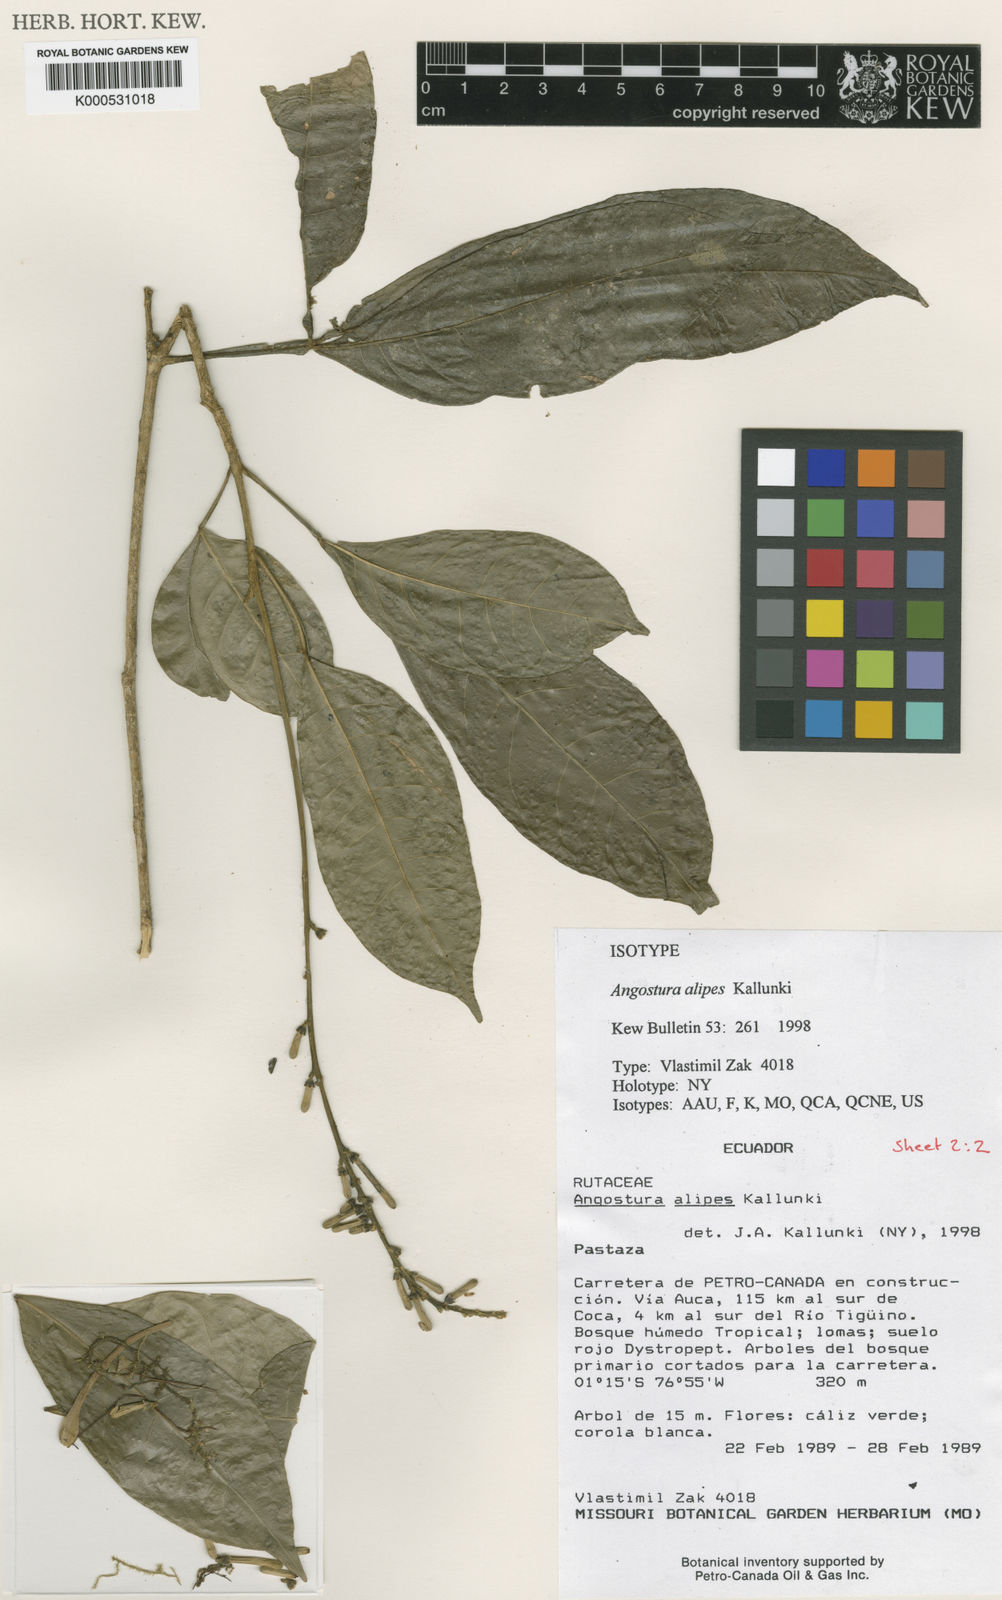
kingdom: Plantae
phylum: Tracheophyta
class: Magnoliopsida
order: Sapindales
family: Rutaceae
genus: Angostura
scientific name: Angostura alipes
